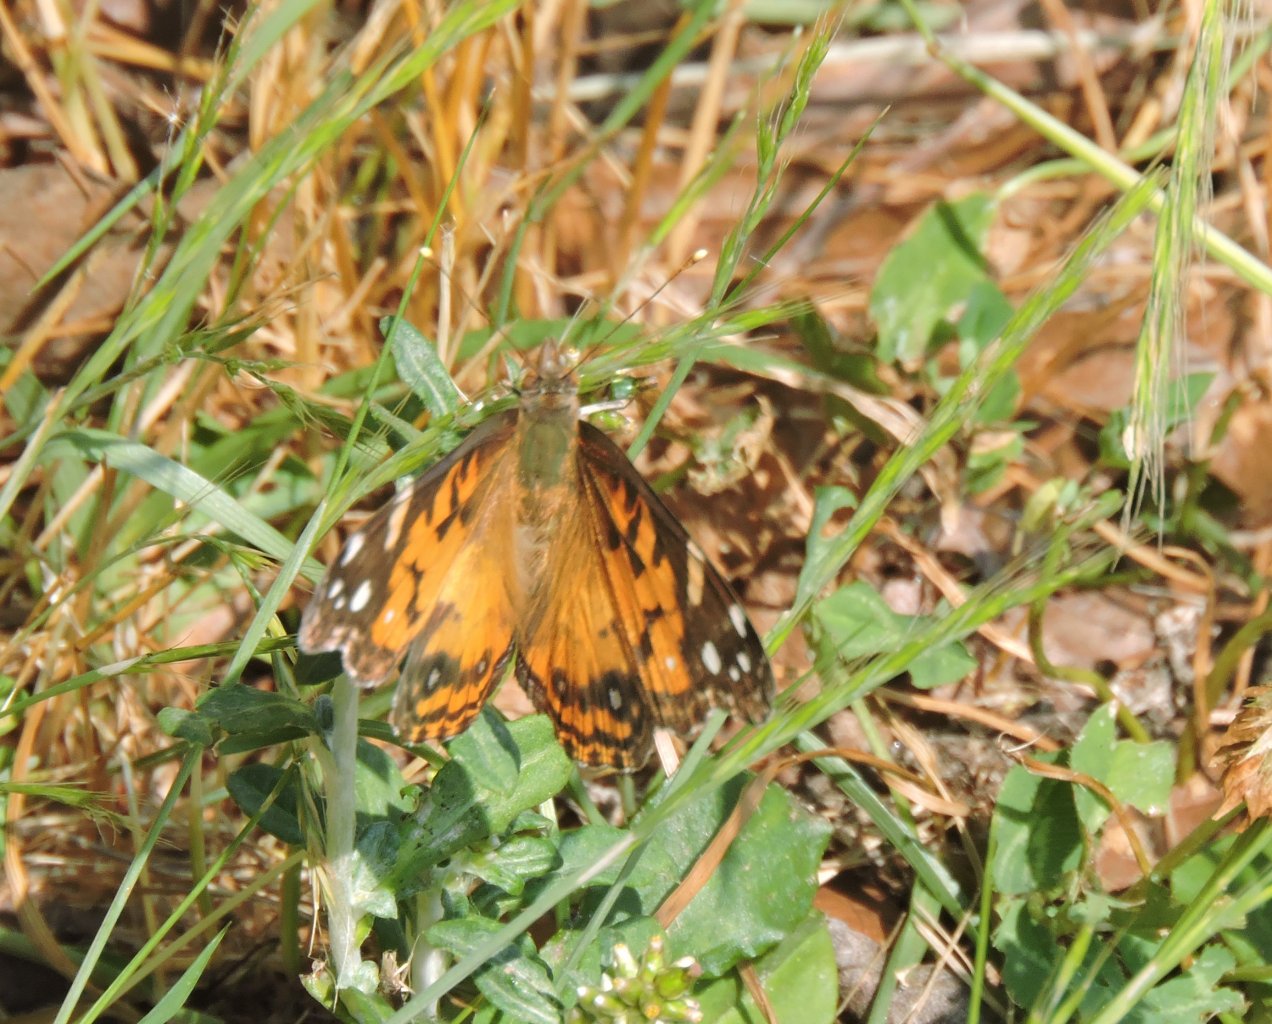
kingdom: Animalia
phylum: Arthropoda
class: Insecta
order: Lepidoptera
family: Nymphalidae
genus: Vanessa
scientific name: Vanessa virginiensis
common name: American Lady
